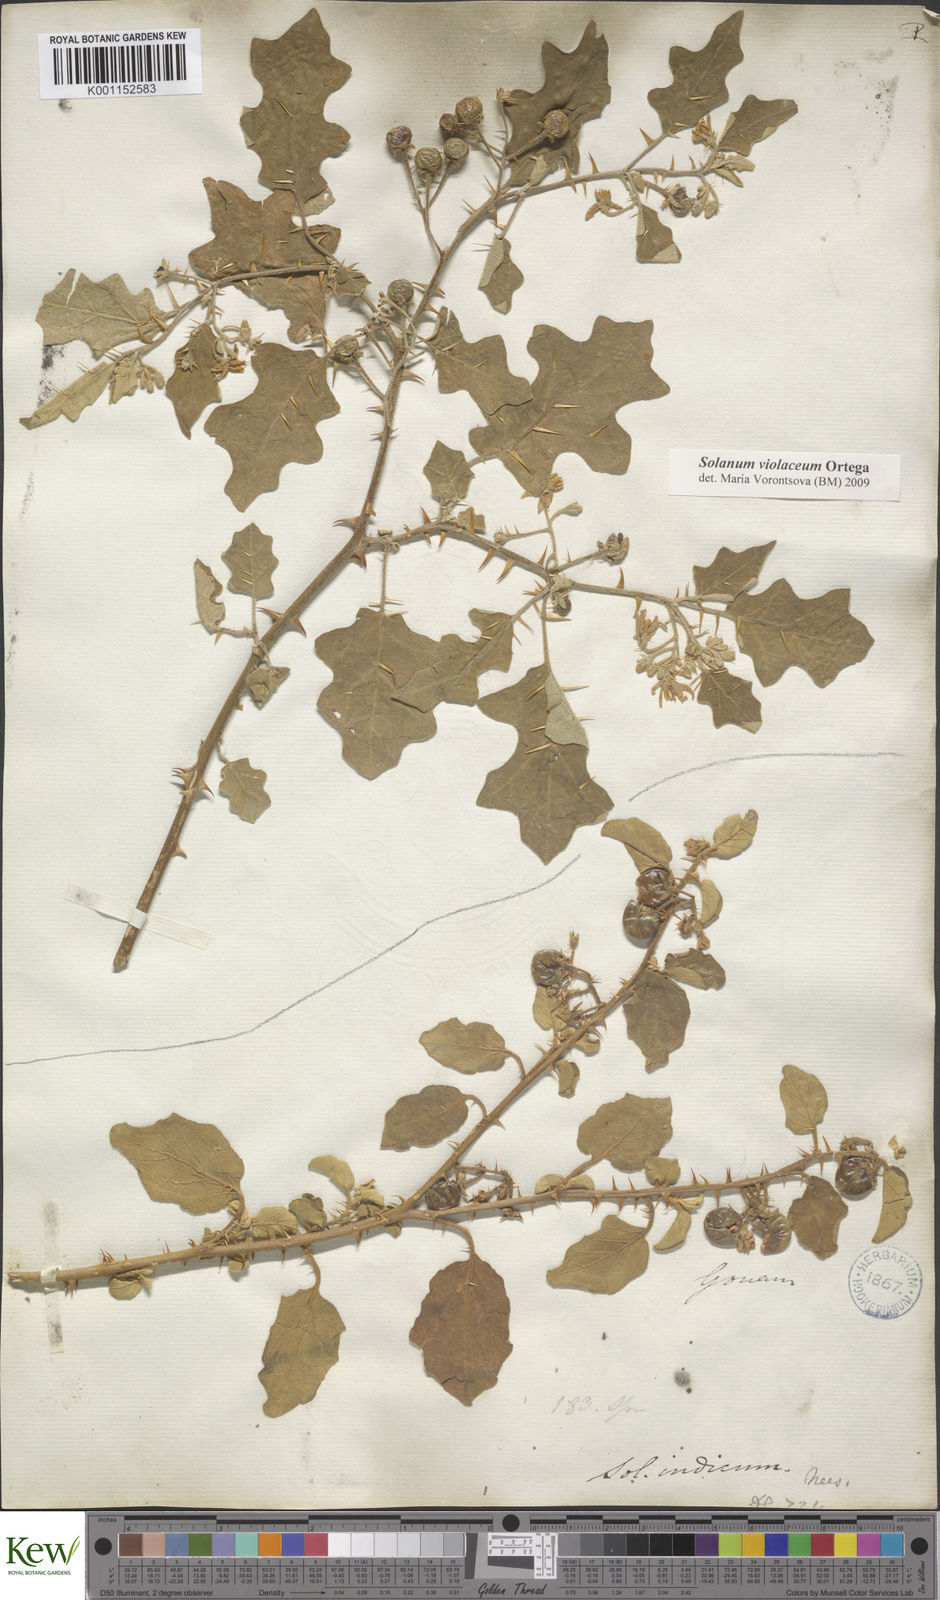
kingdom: Plantae
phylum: Tracheophyta
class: Magnoliopsida
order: Solanales
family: Solanaceae
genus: Solanum
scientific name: Solanum violaceum
